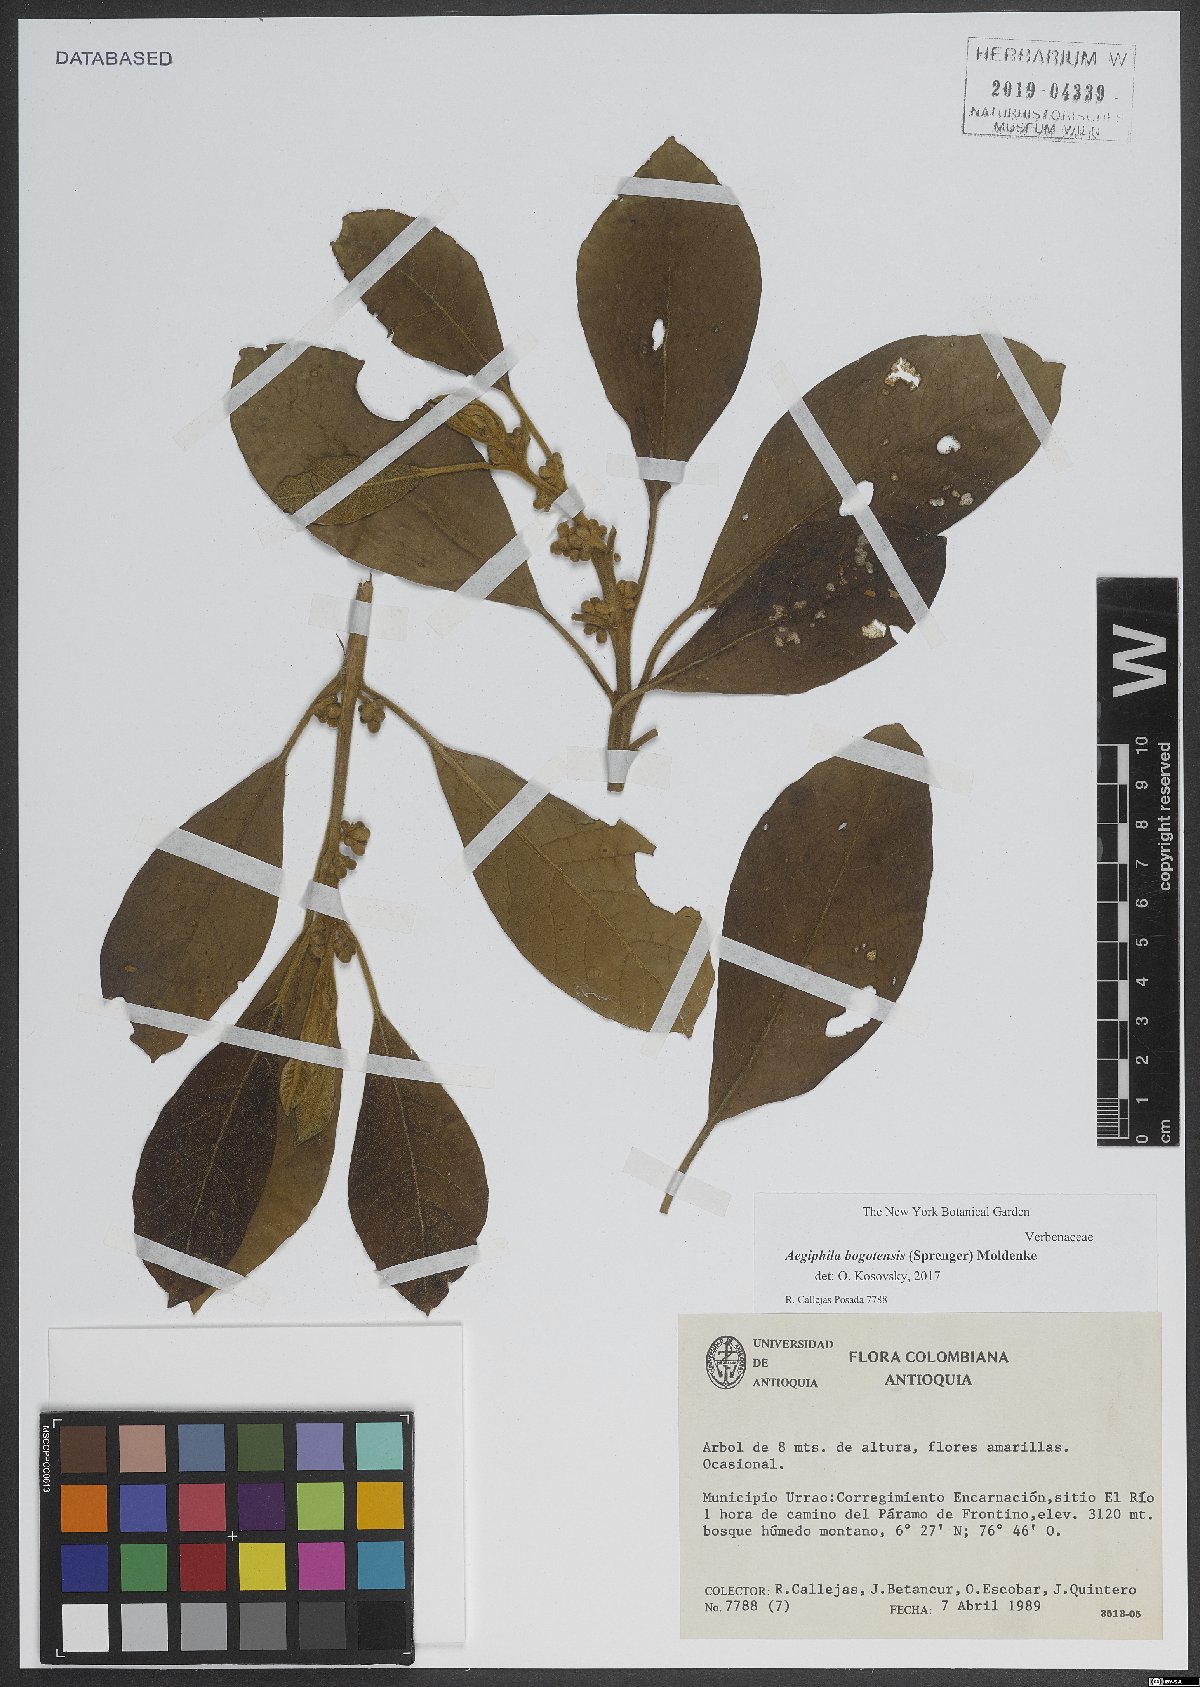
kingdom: Plantae
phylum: Tracheophyta
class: Magnoliopsida
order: Lamiales
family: Lamiaceae
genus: Aegiphila
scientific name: Aegiphila bogotensis
